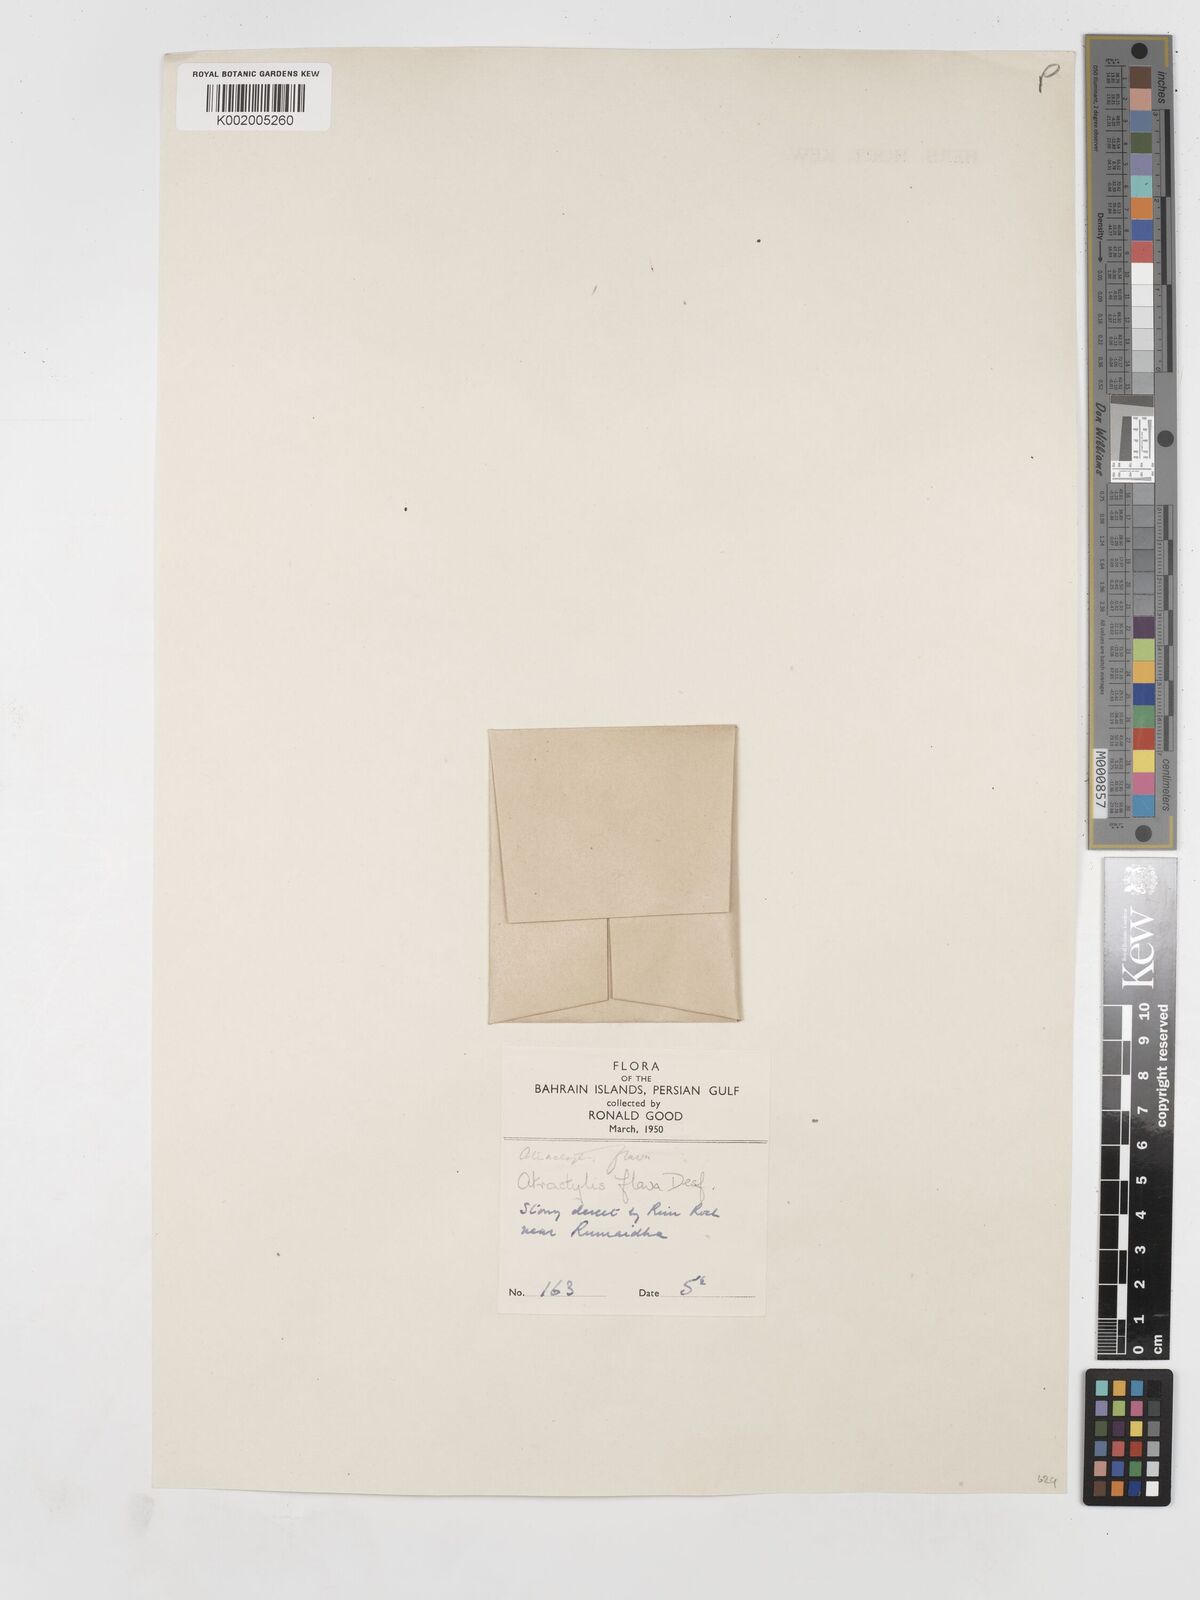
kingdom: Plantae
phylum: Tracheophyta
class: Magnoliopsida
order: Asterales
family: Asteraceae
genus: Atractylis
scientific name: Atractylis carduus
